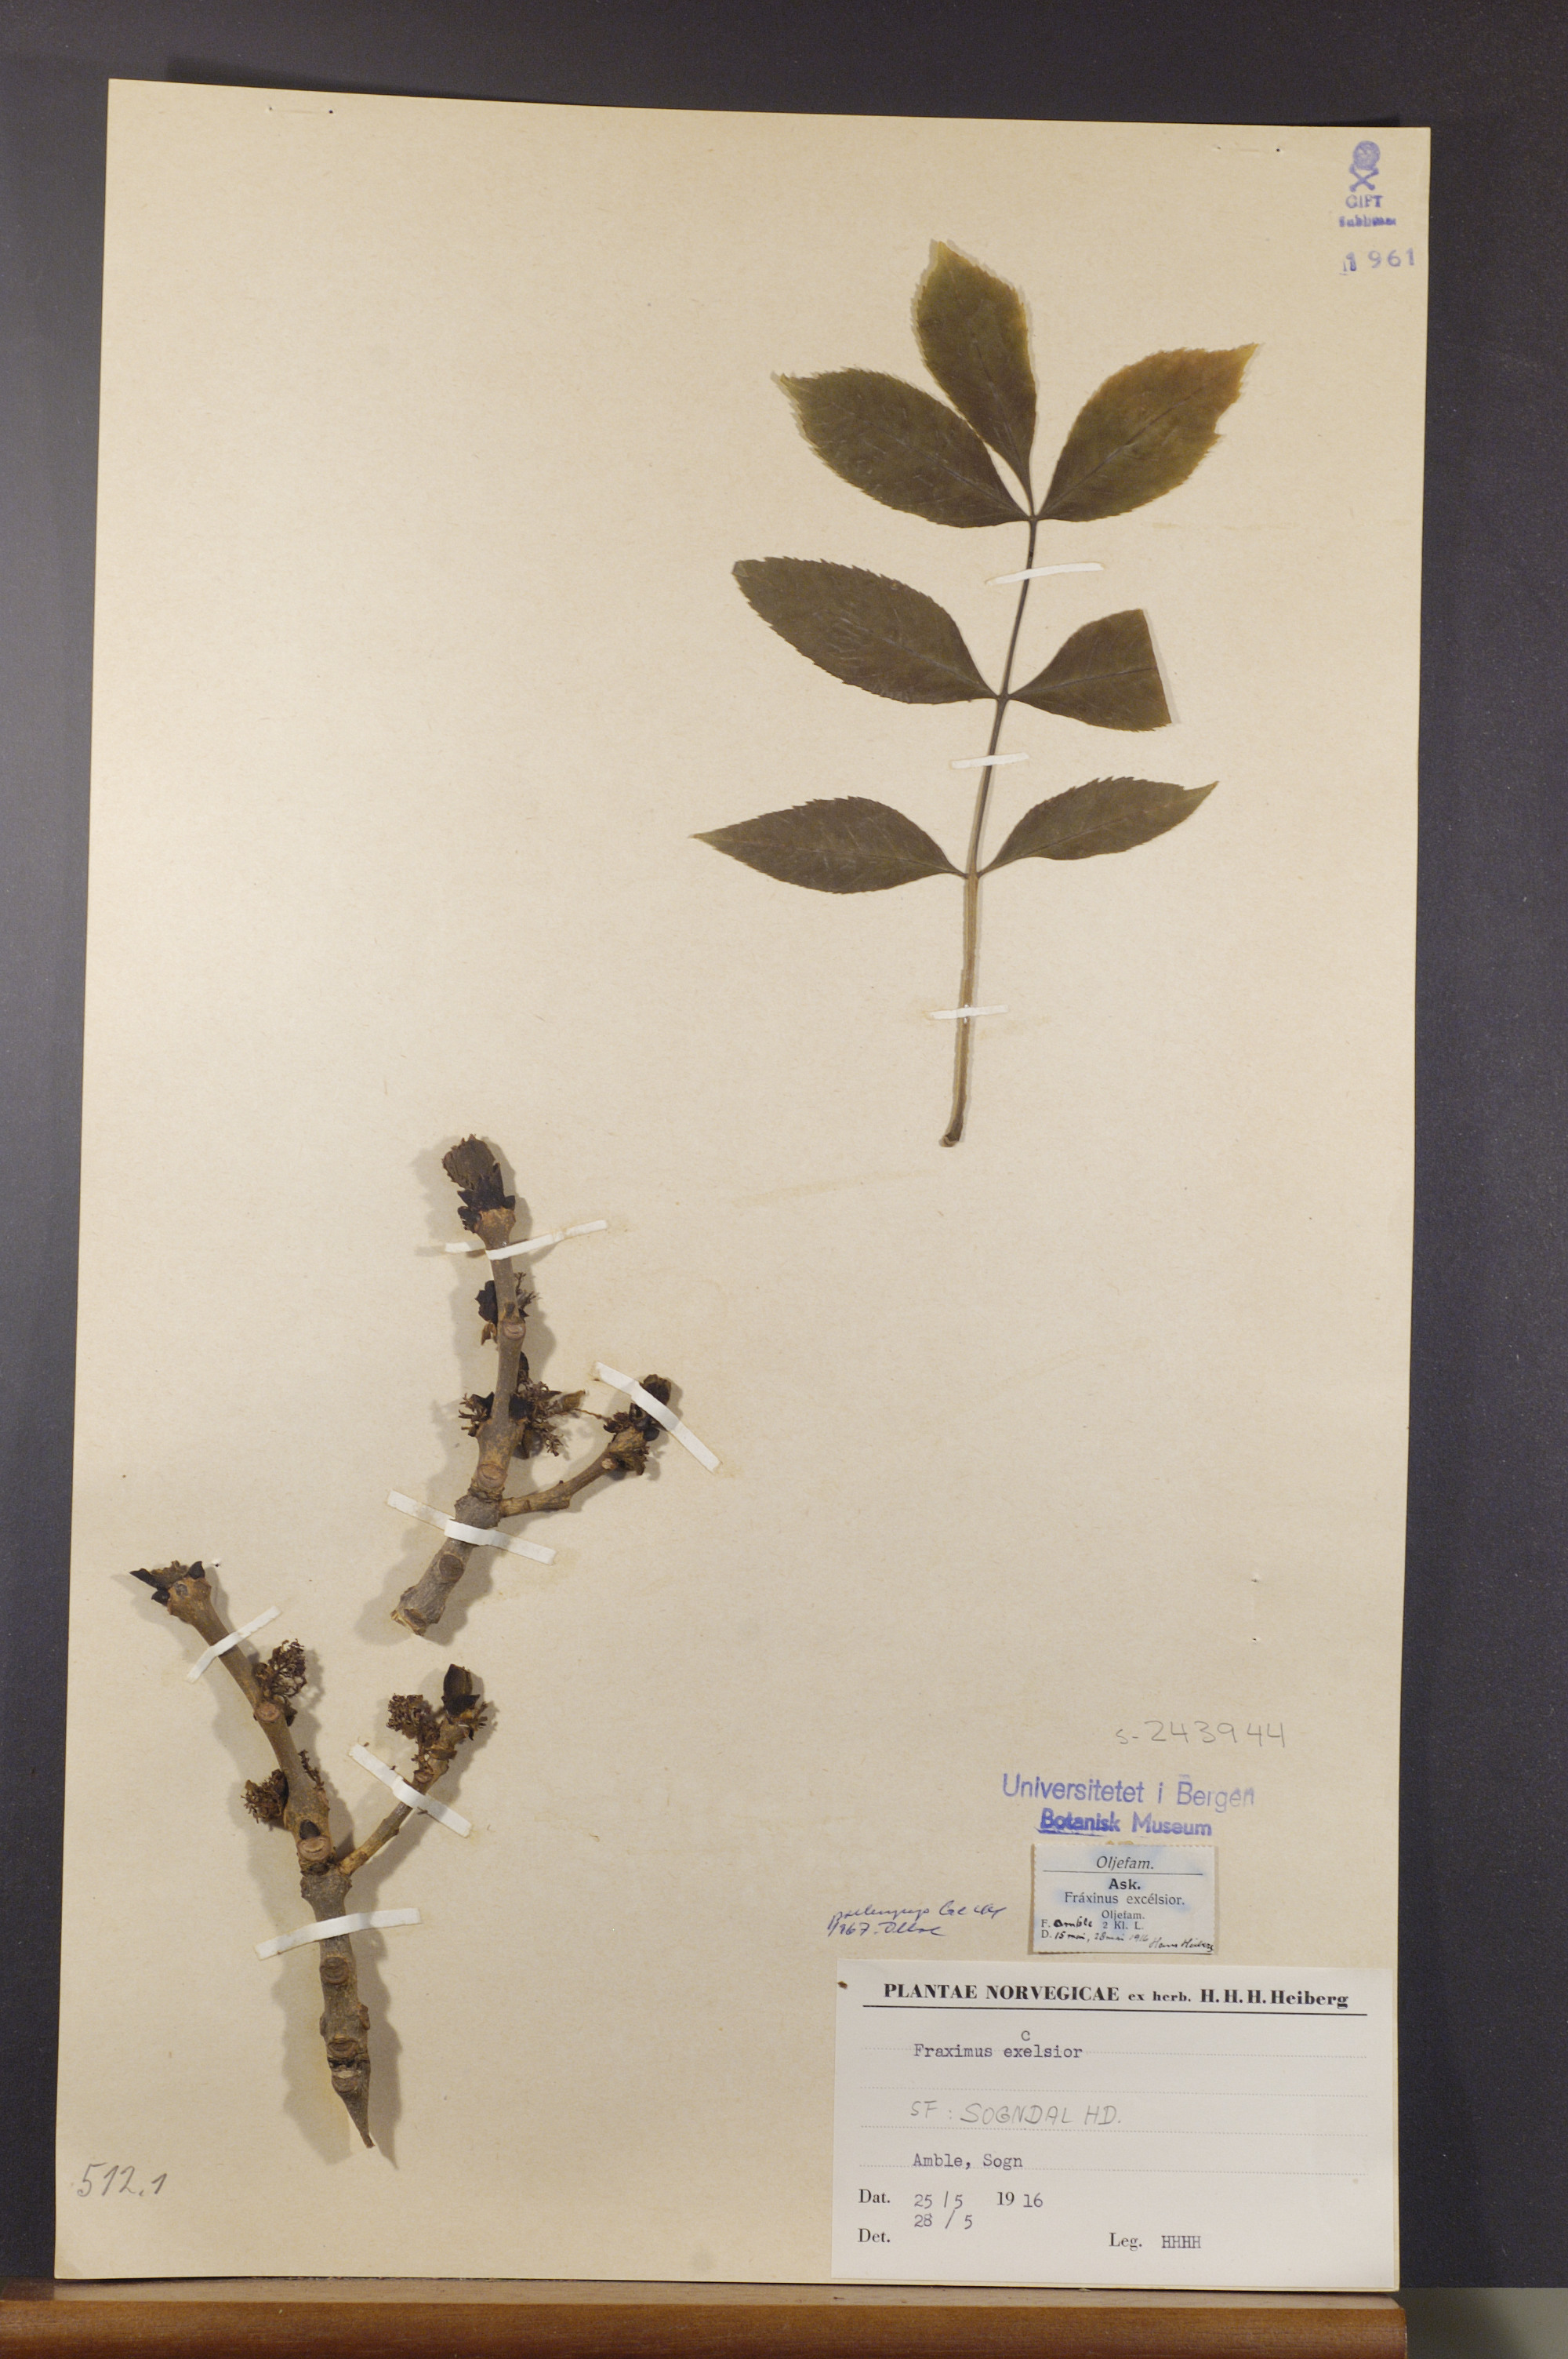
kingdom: Plantae
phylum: Tracheophyta
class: Magnoliopsida
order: Lamiales
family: Oleaceae
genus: Fraxinus
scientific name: Fraxinus excelsior
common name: European ash
